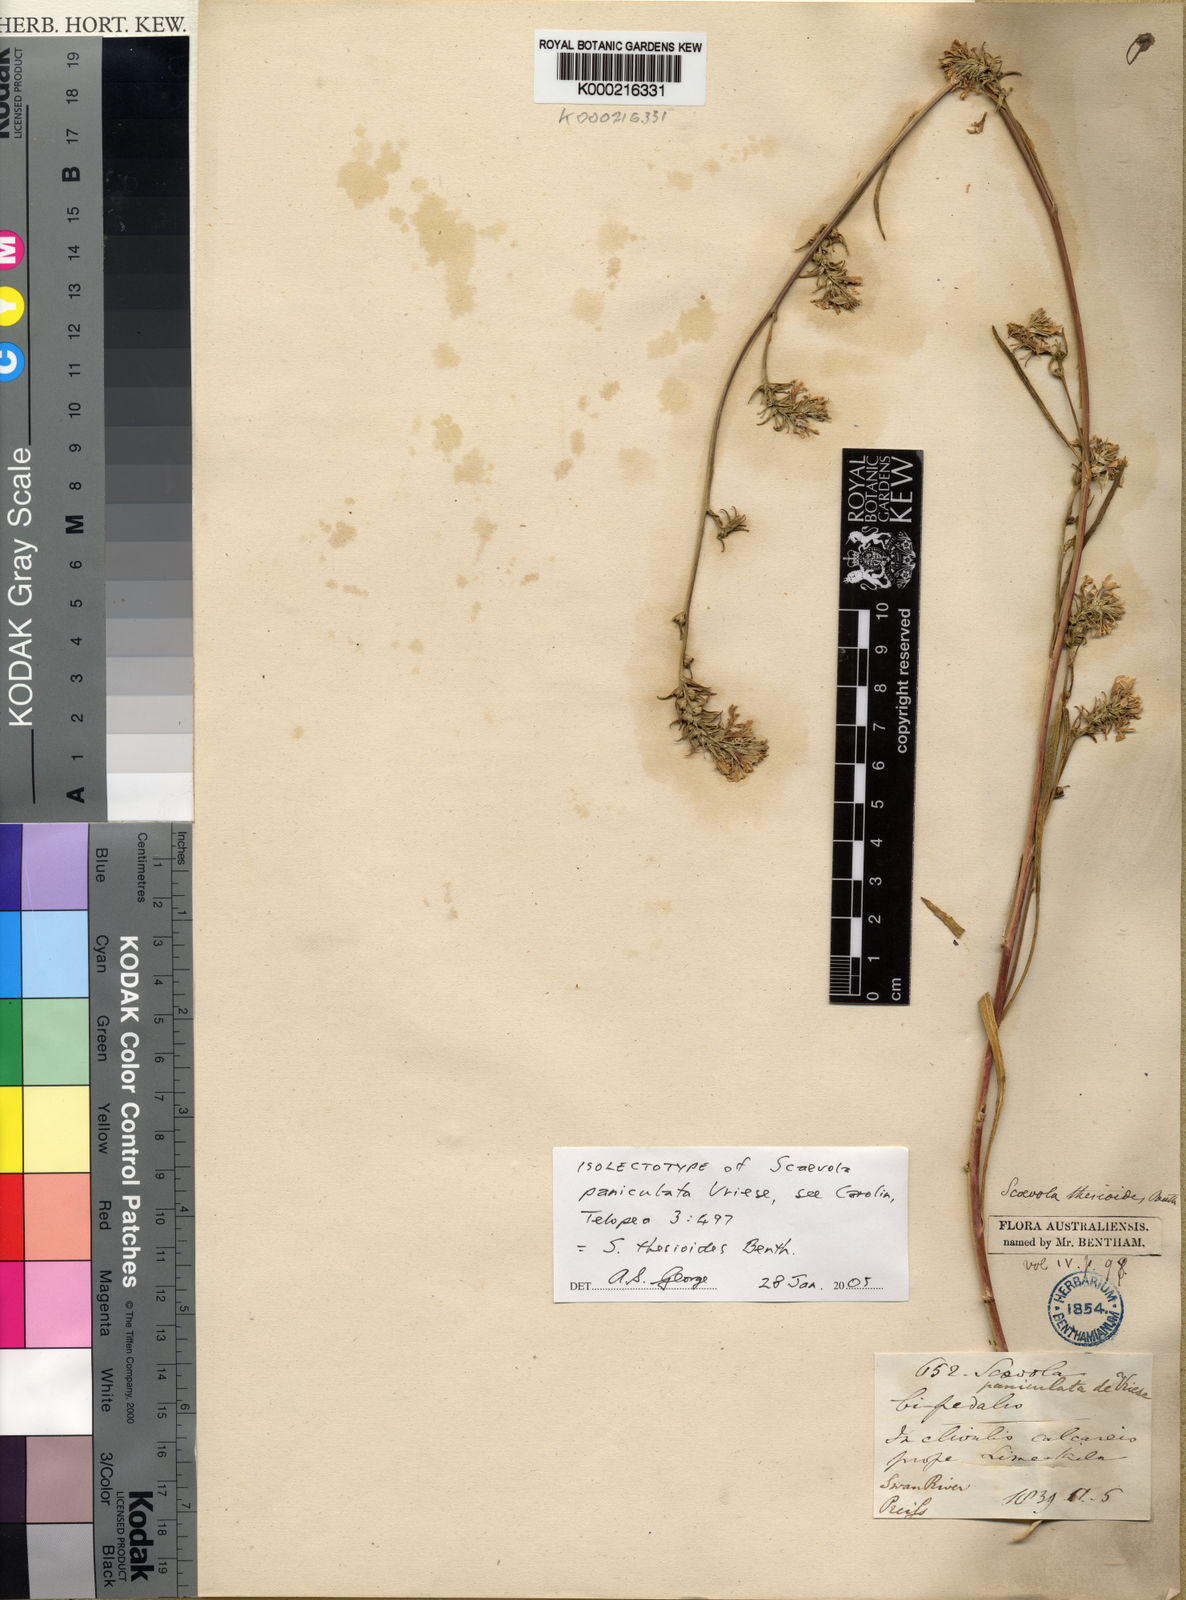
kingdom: Plantae
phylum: Tracheophyta
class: Magnoliopsida
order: Asterales
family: Goodeniaceae
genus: Scaevola
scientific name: Scaevola thesioides
